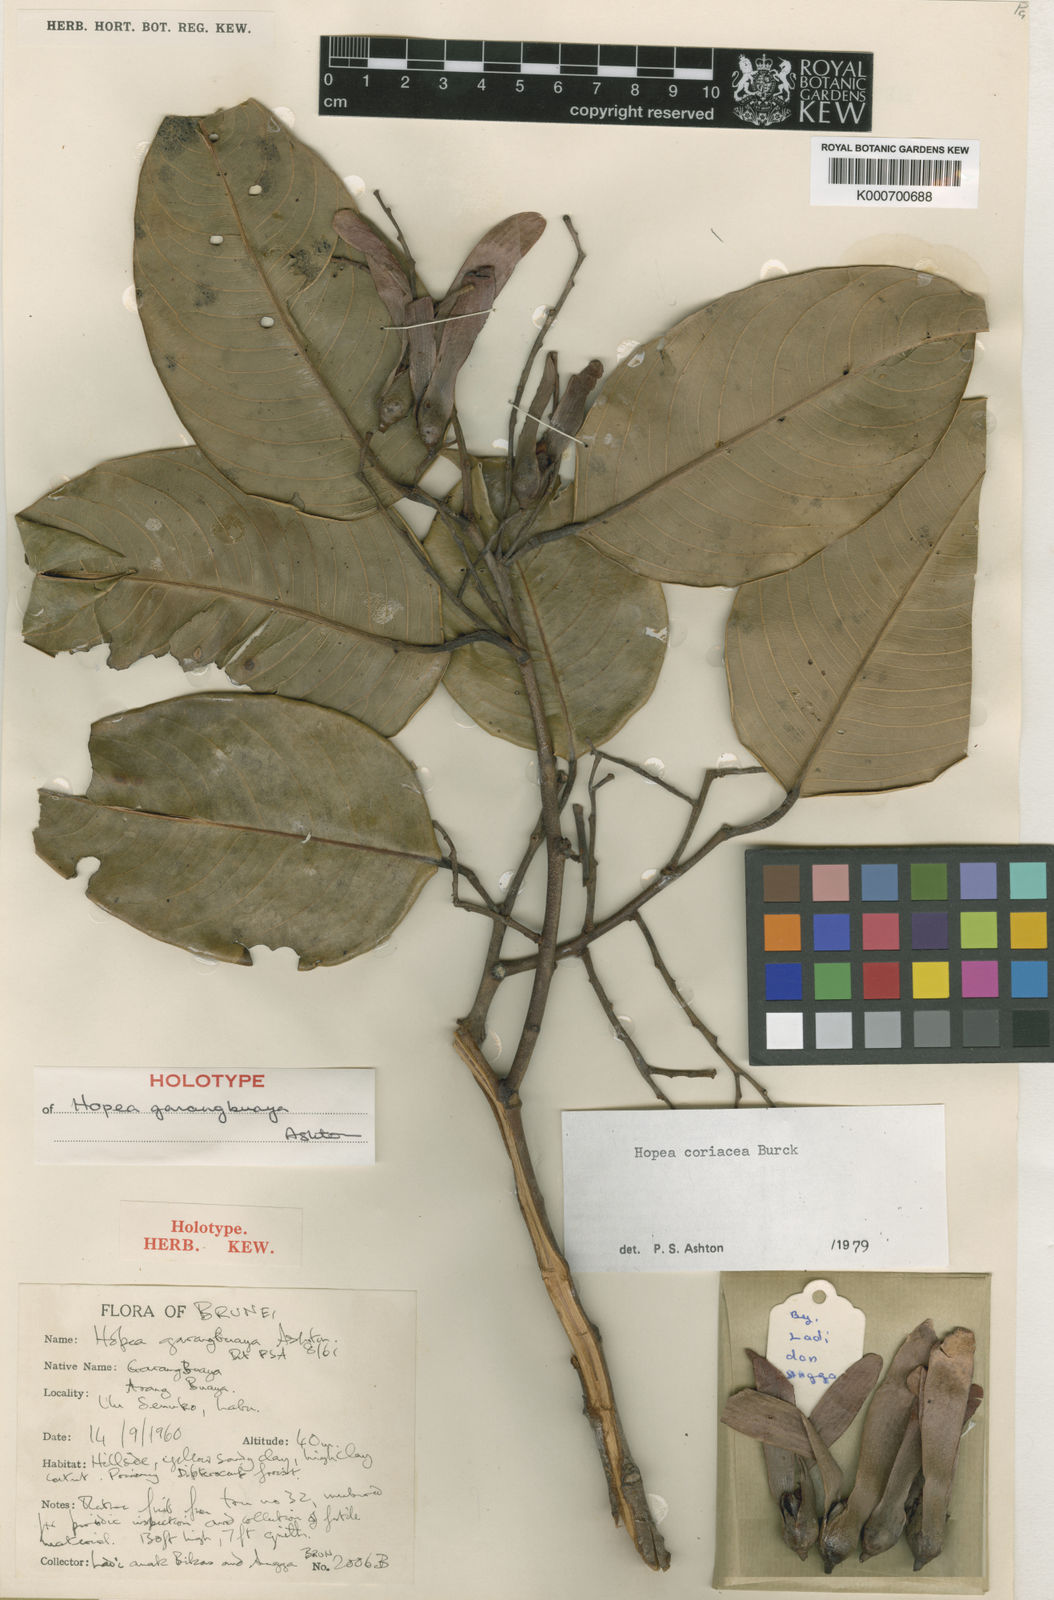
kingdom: Plantae
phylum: Tracheophyta
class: Magnoliopsida
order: Malvales
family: Dipterocarpaceae
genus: Hopea
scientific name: Hopea coriacea
